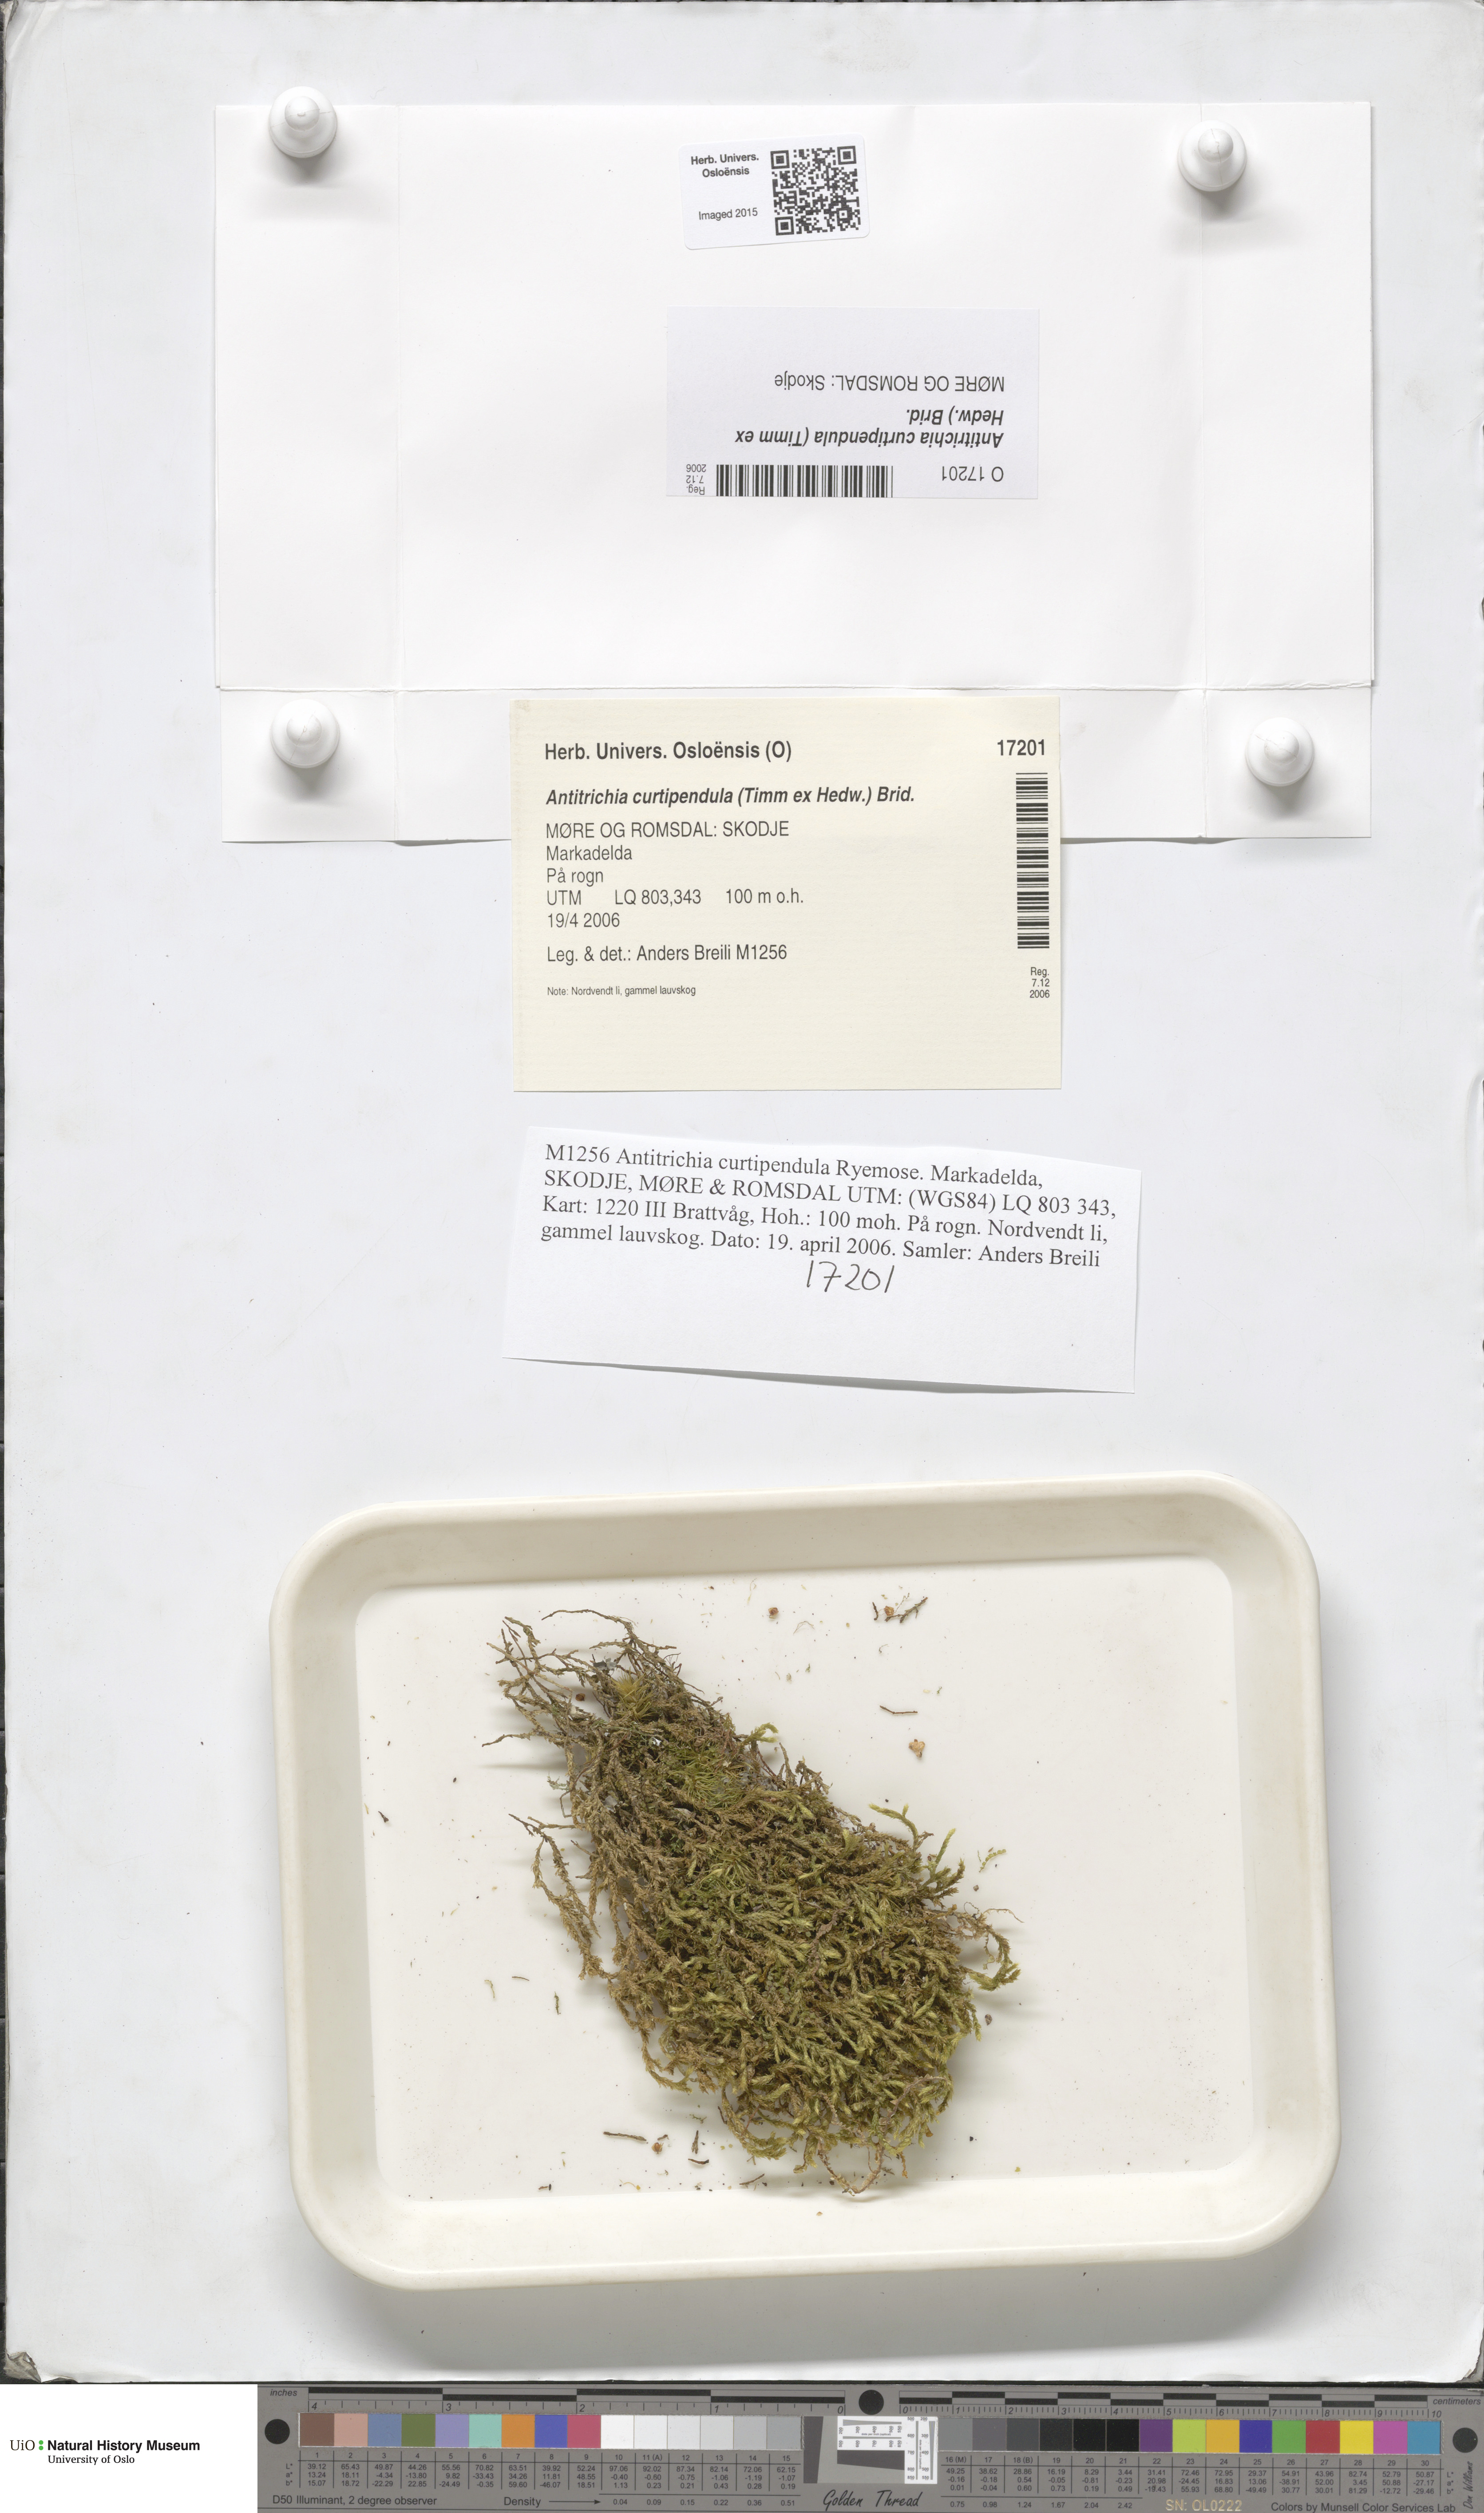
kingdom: Plantae
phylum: Bryophyta
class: Bryopsida
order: Hypnales
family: Antitrichiaceae
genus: Antitrichia
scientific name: Antitrichia curtipendula
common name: Pendulous wing-moss
